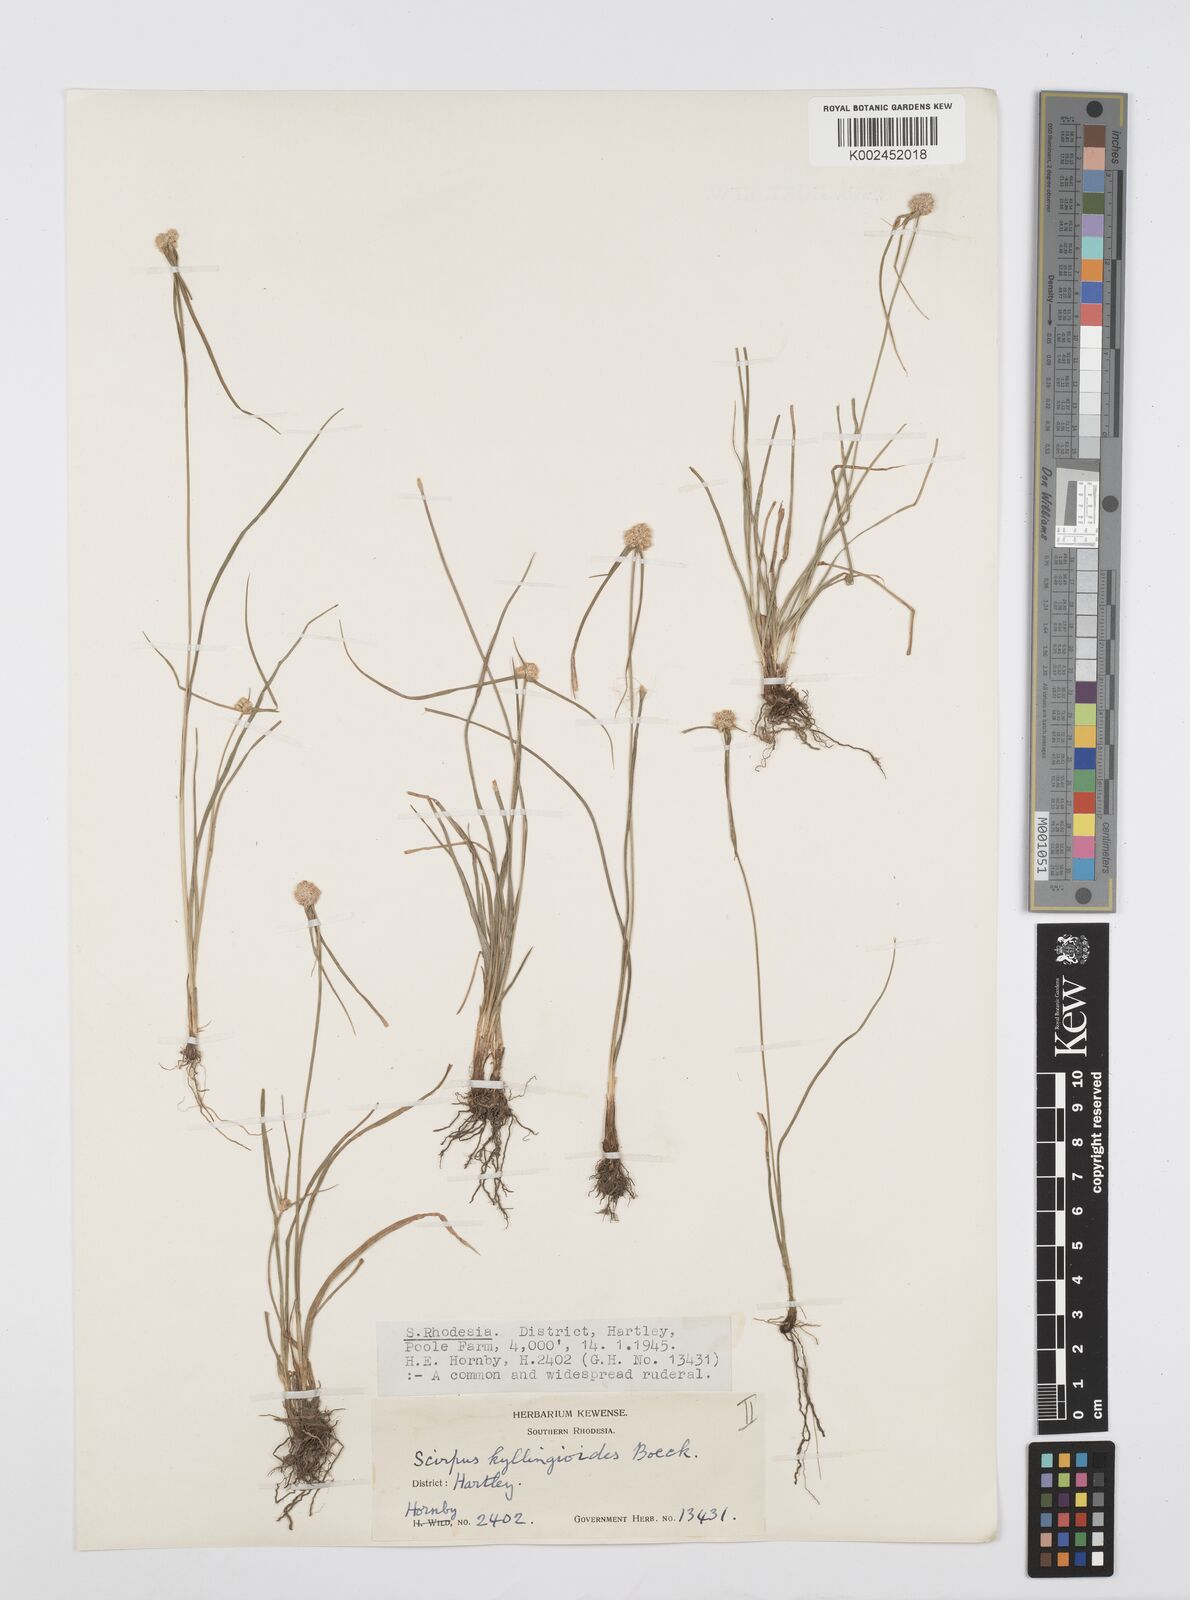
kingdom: Plantae
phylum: Tracheophyta
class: Liliopsida
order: Poales
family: Cyperaceae
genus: Cyperus
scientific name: Cyperus conglobatus
